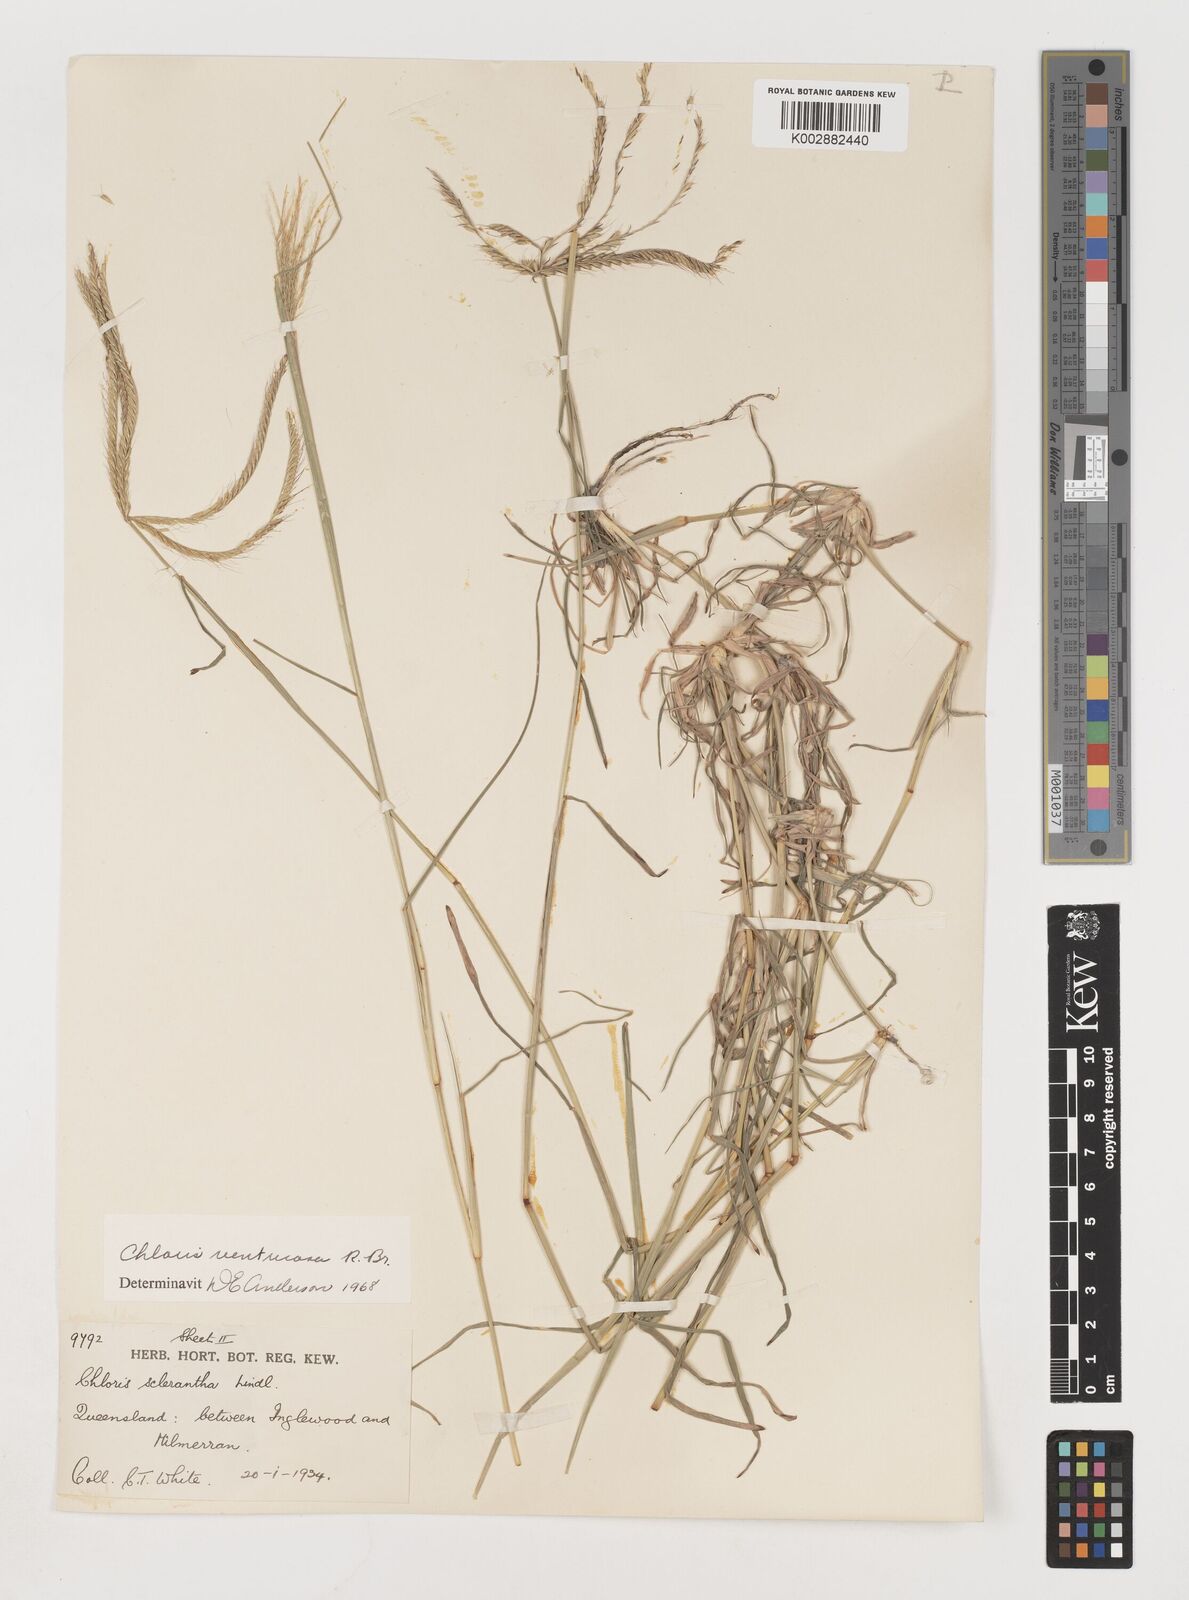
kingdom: Plantae
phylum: Tracheophyta
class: Liliopsida
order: Poales
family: Poaceae
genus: Chloris
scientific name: Chloris ventricosa
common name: Australian windmill grass
